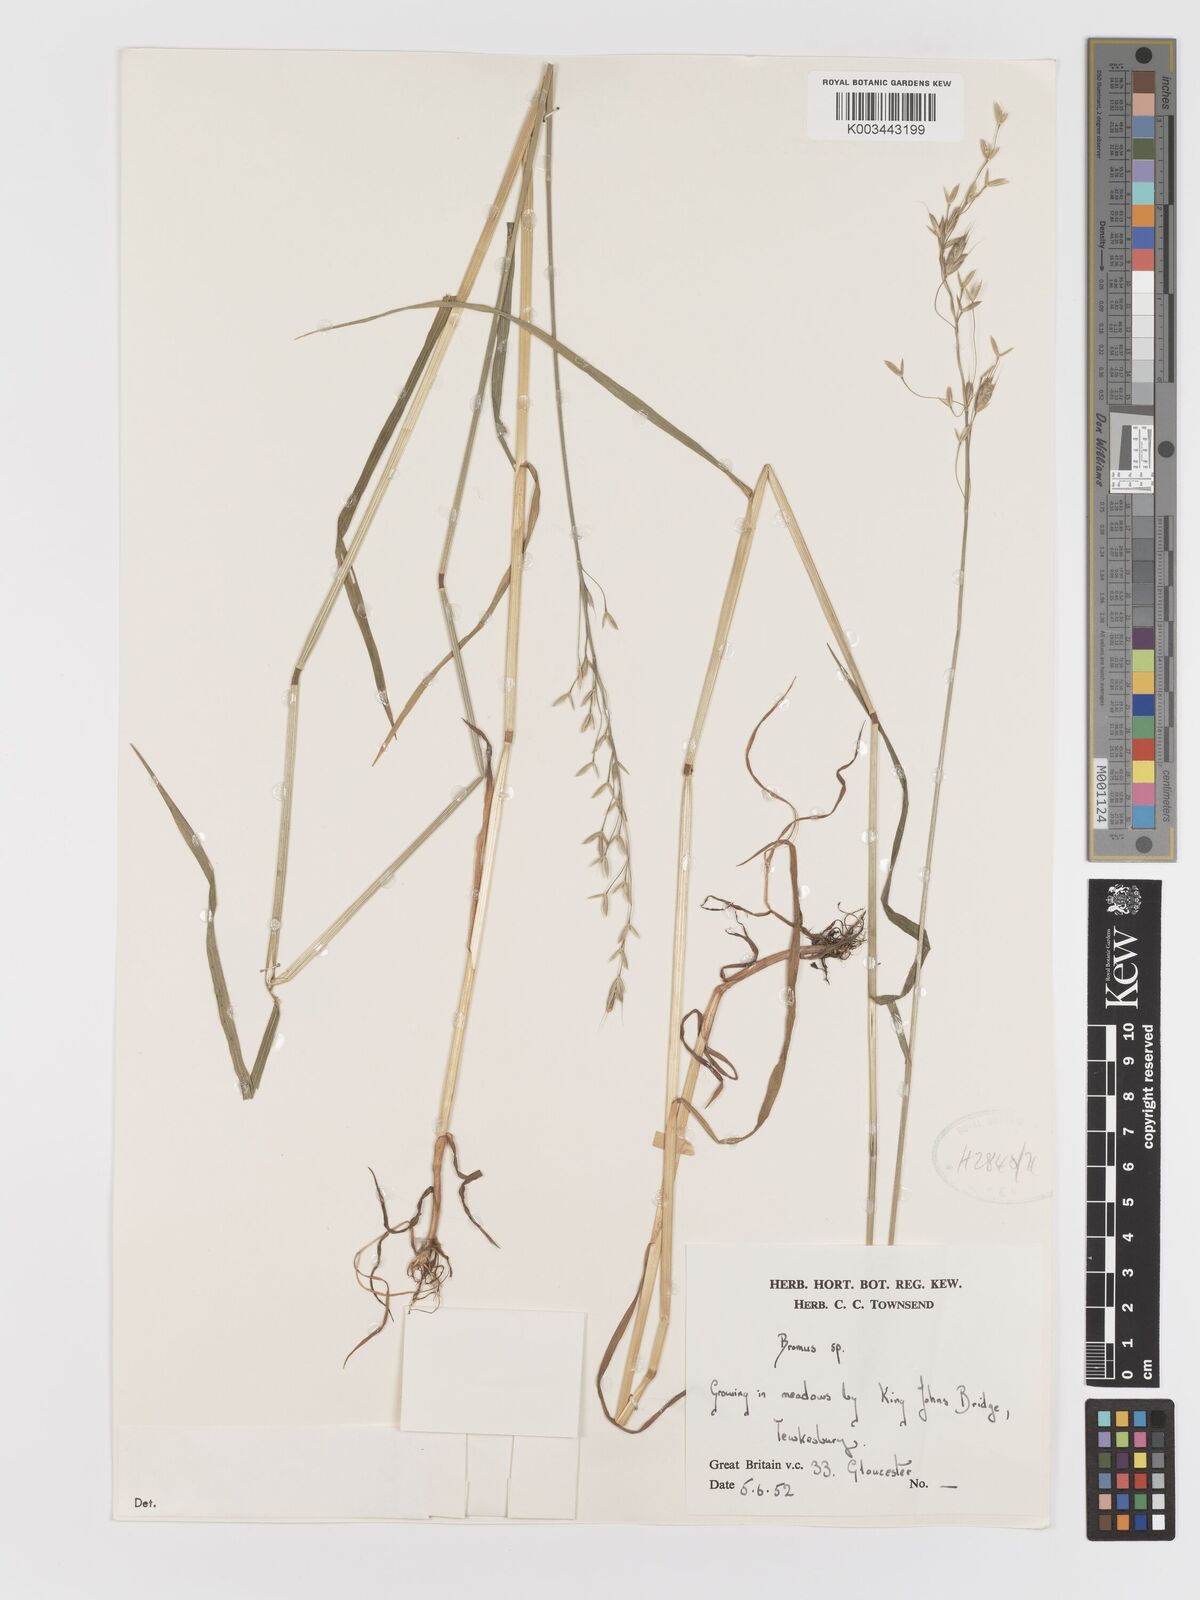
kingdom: Plantae
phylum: Tracheophyta
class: Liliopsida
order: Poales
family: Poaceae
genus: Bromus
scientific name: Bromus
